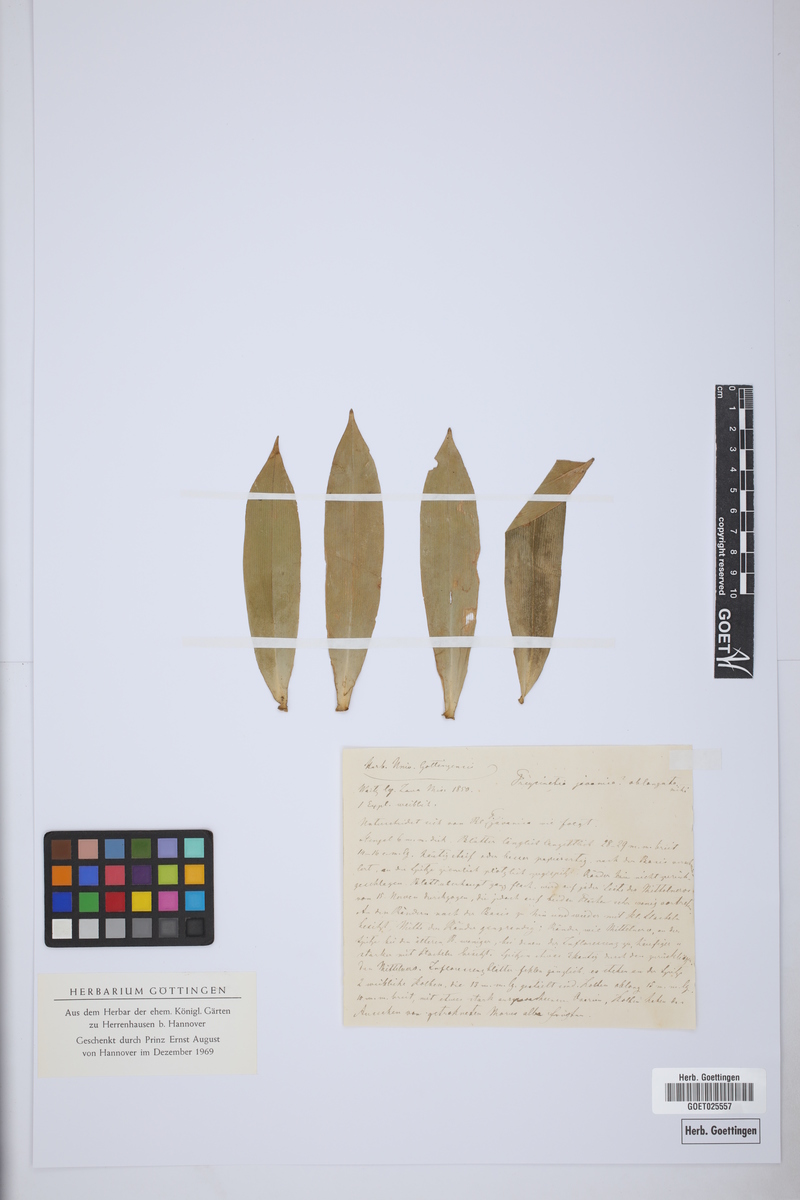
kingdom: Plantae
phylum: Tracheophyta
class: Liliopsida
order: Pandanales
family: Pandanaceae
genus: Freycinetia
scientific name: Freycinetia javanica
